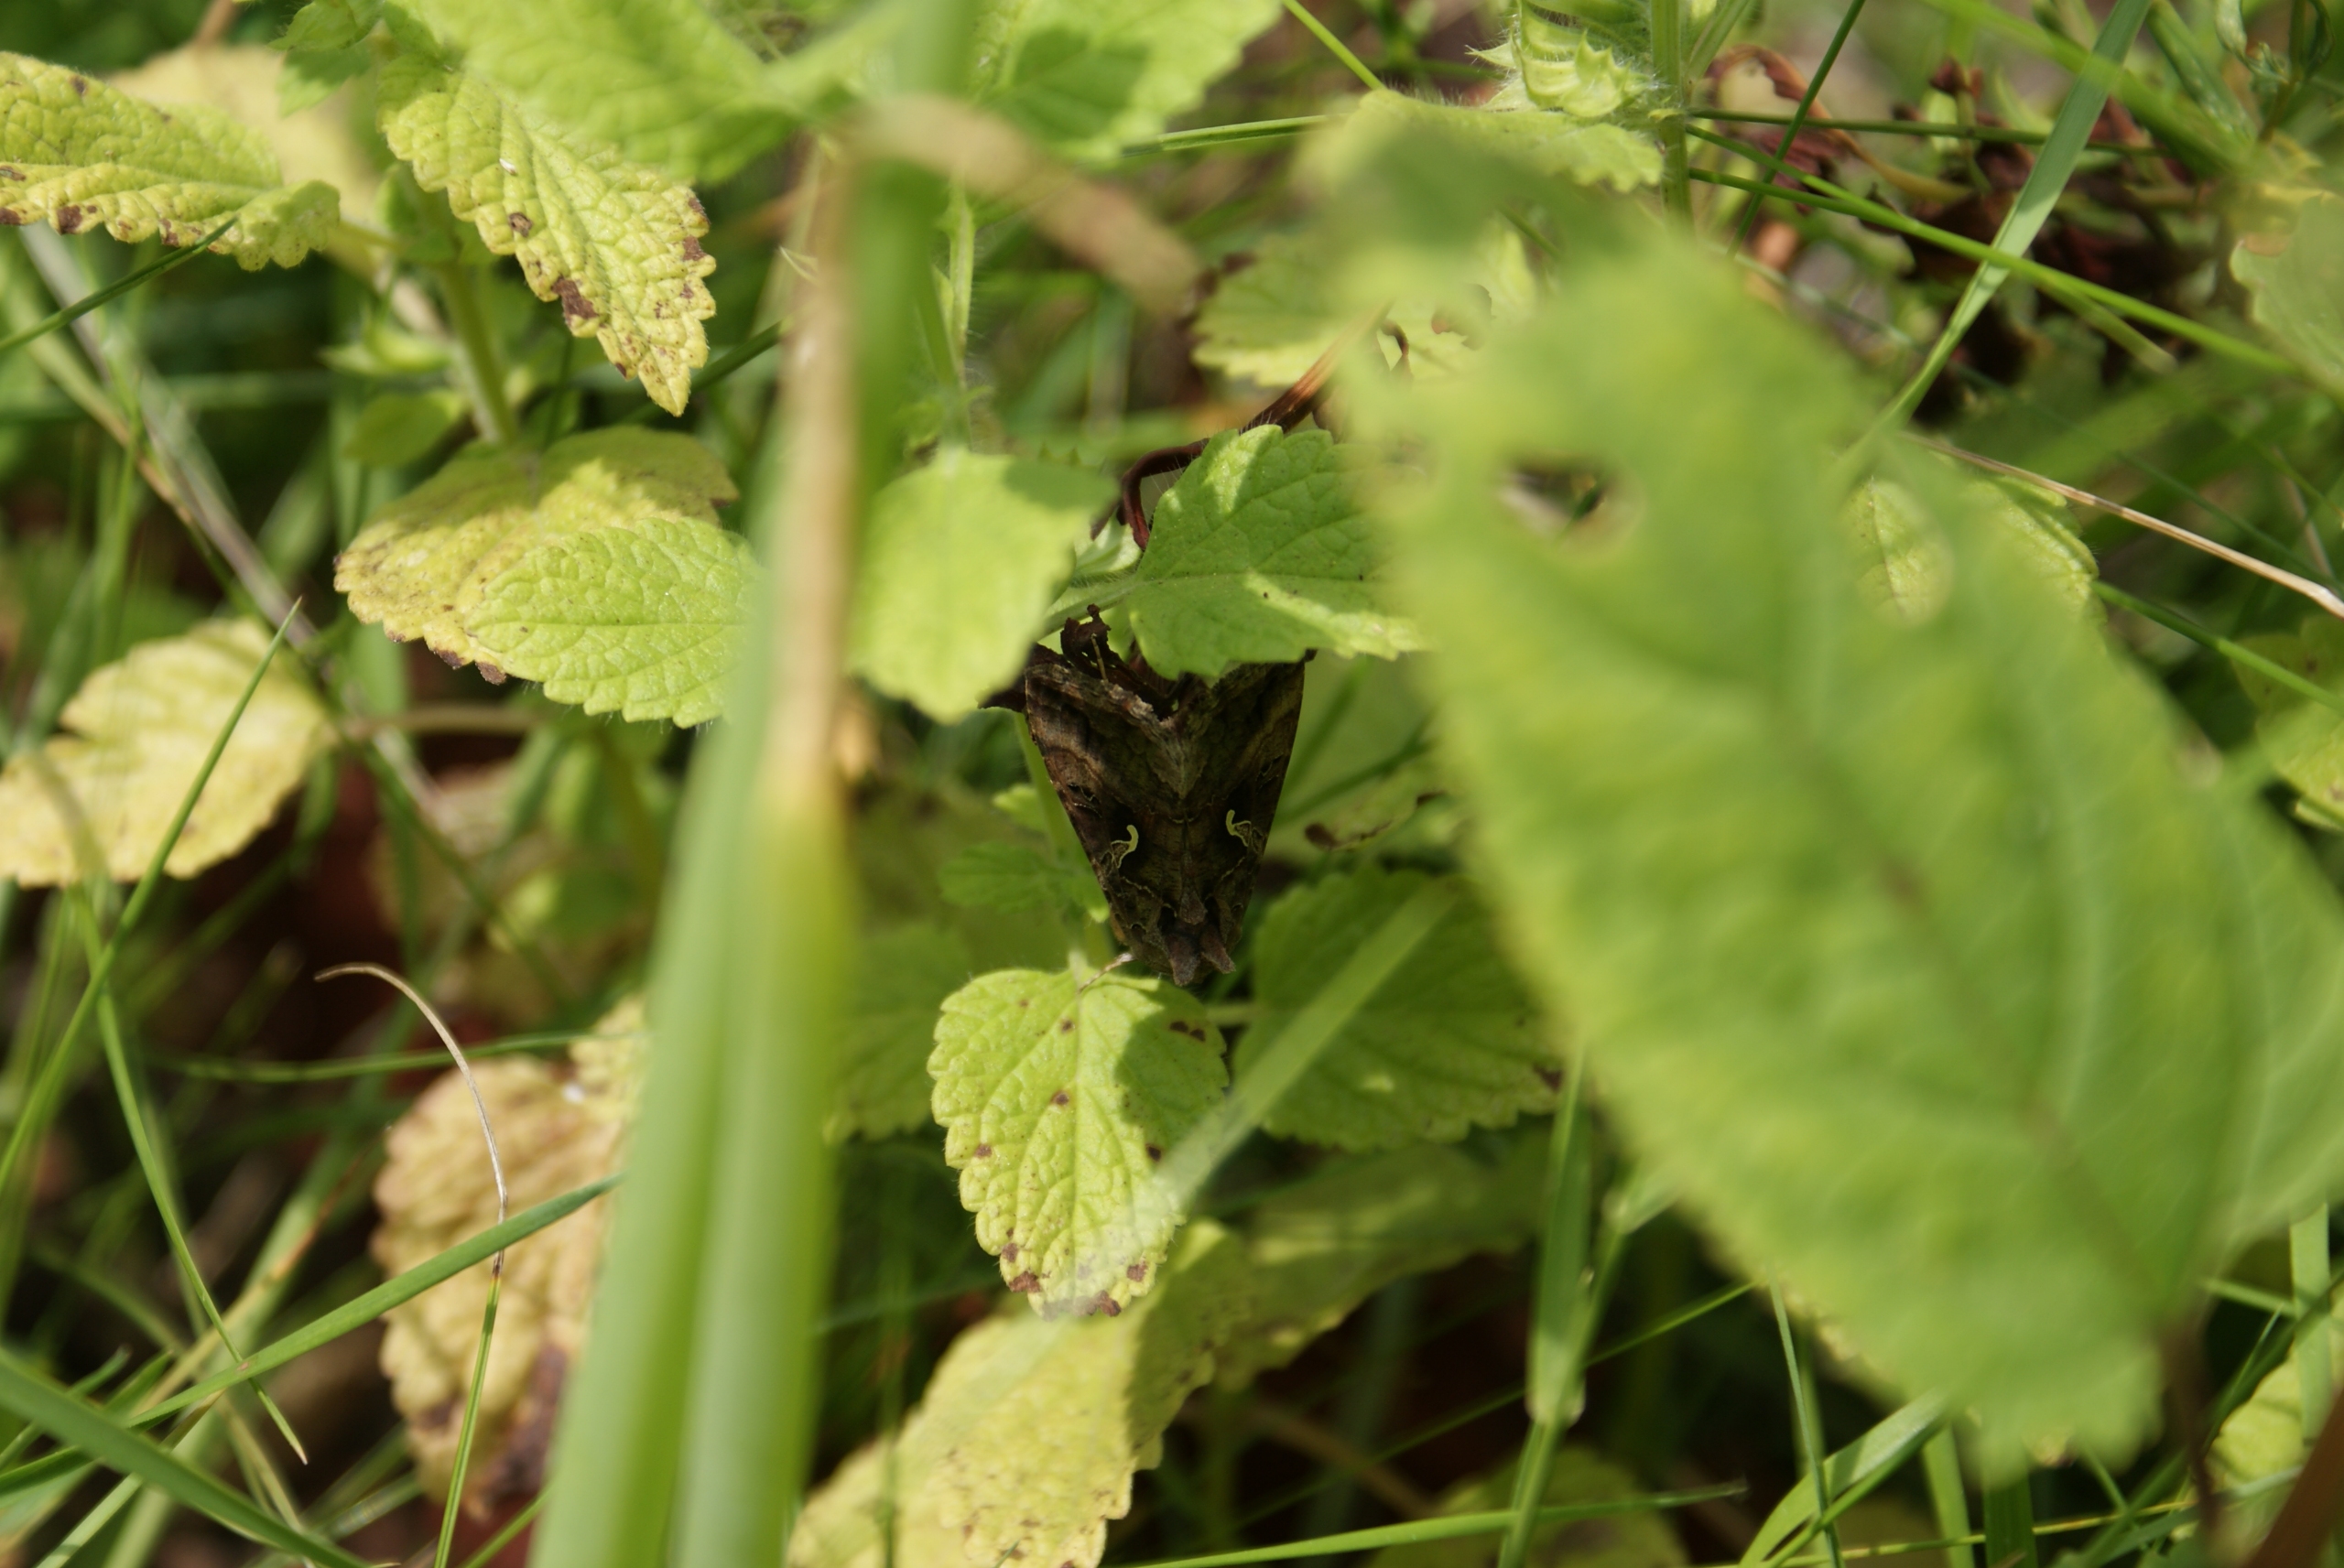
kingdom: Animalia
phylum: Arthropoda
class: Insecta
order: Lepidoptera
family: Noctuidae
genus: Autographa
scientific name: Autographa gamma
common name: Gammaugle
